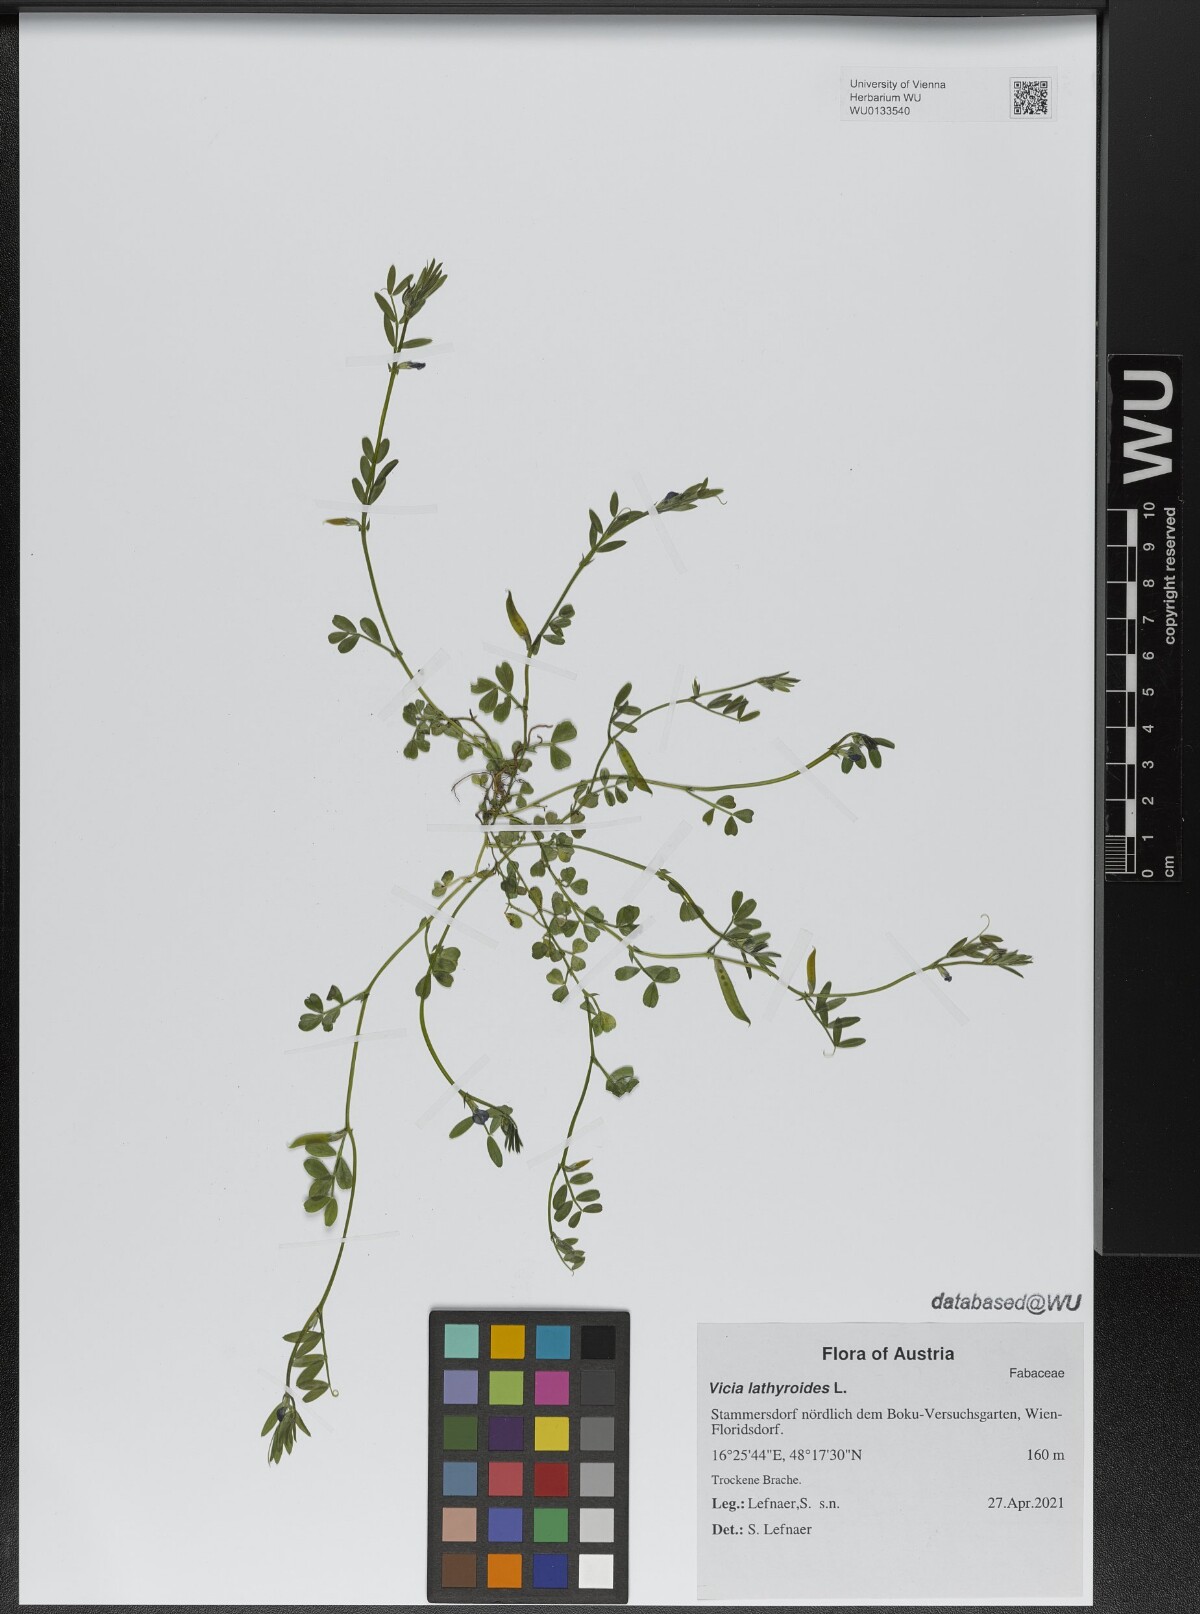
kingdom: Plantae
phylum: Tracheophyta
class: Magnoliopsida
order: Fabales
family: Fabaceae
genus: Vicia
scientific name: Vicia lathyroides
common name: Spring vetch
